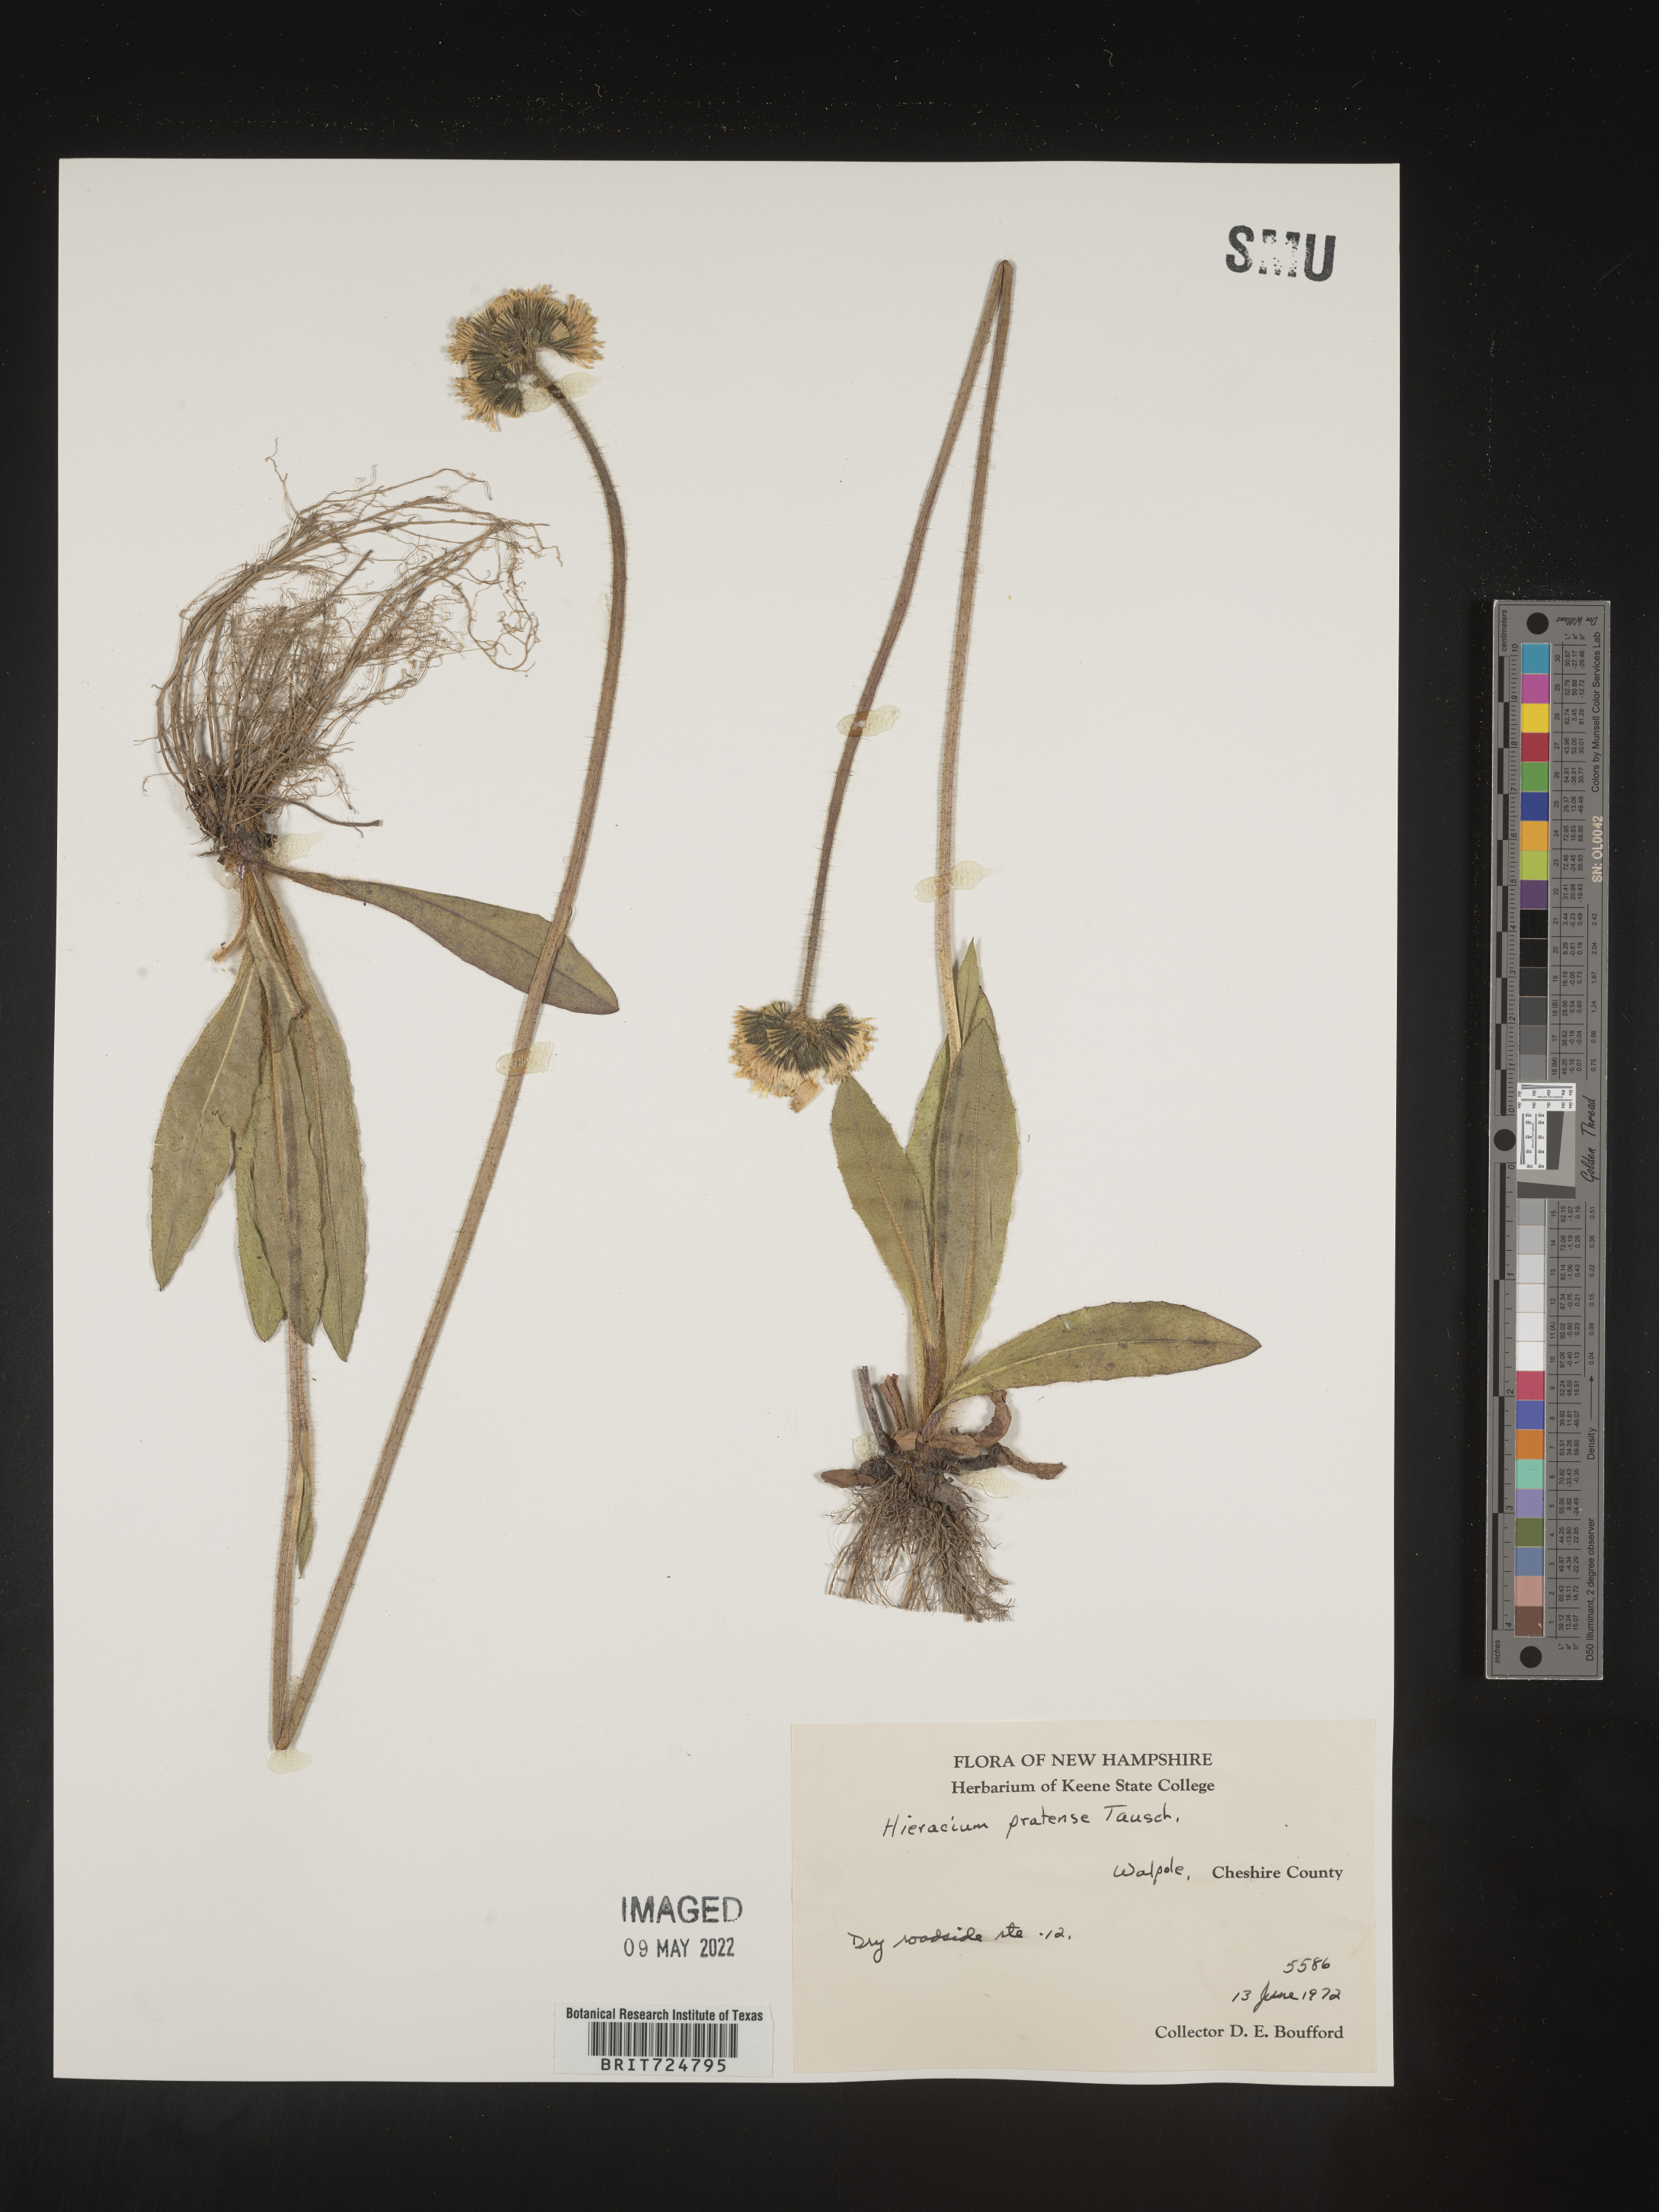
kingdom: Plantae
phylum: Tracheophyta
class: Magnoliopsida
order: Asterales
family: Asteraceae
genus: Hieracium
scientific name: Hieracium
